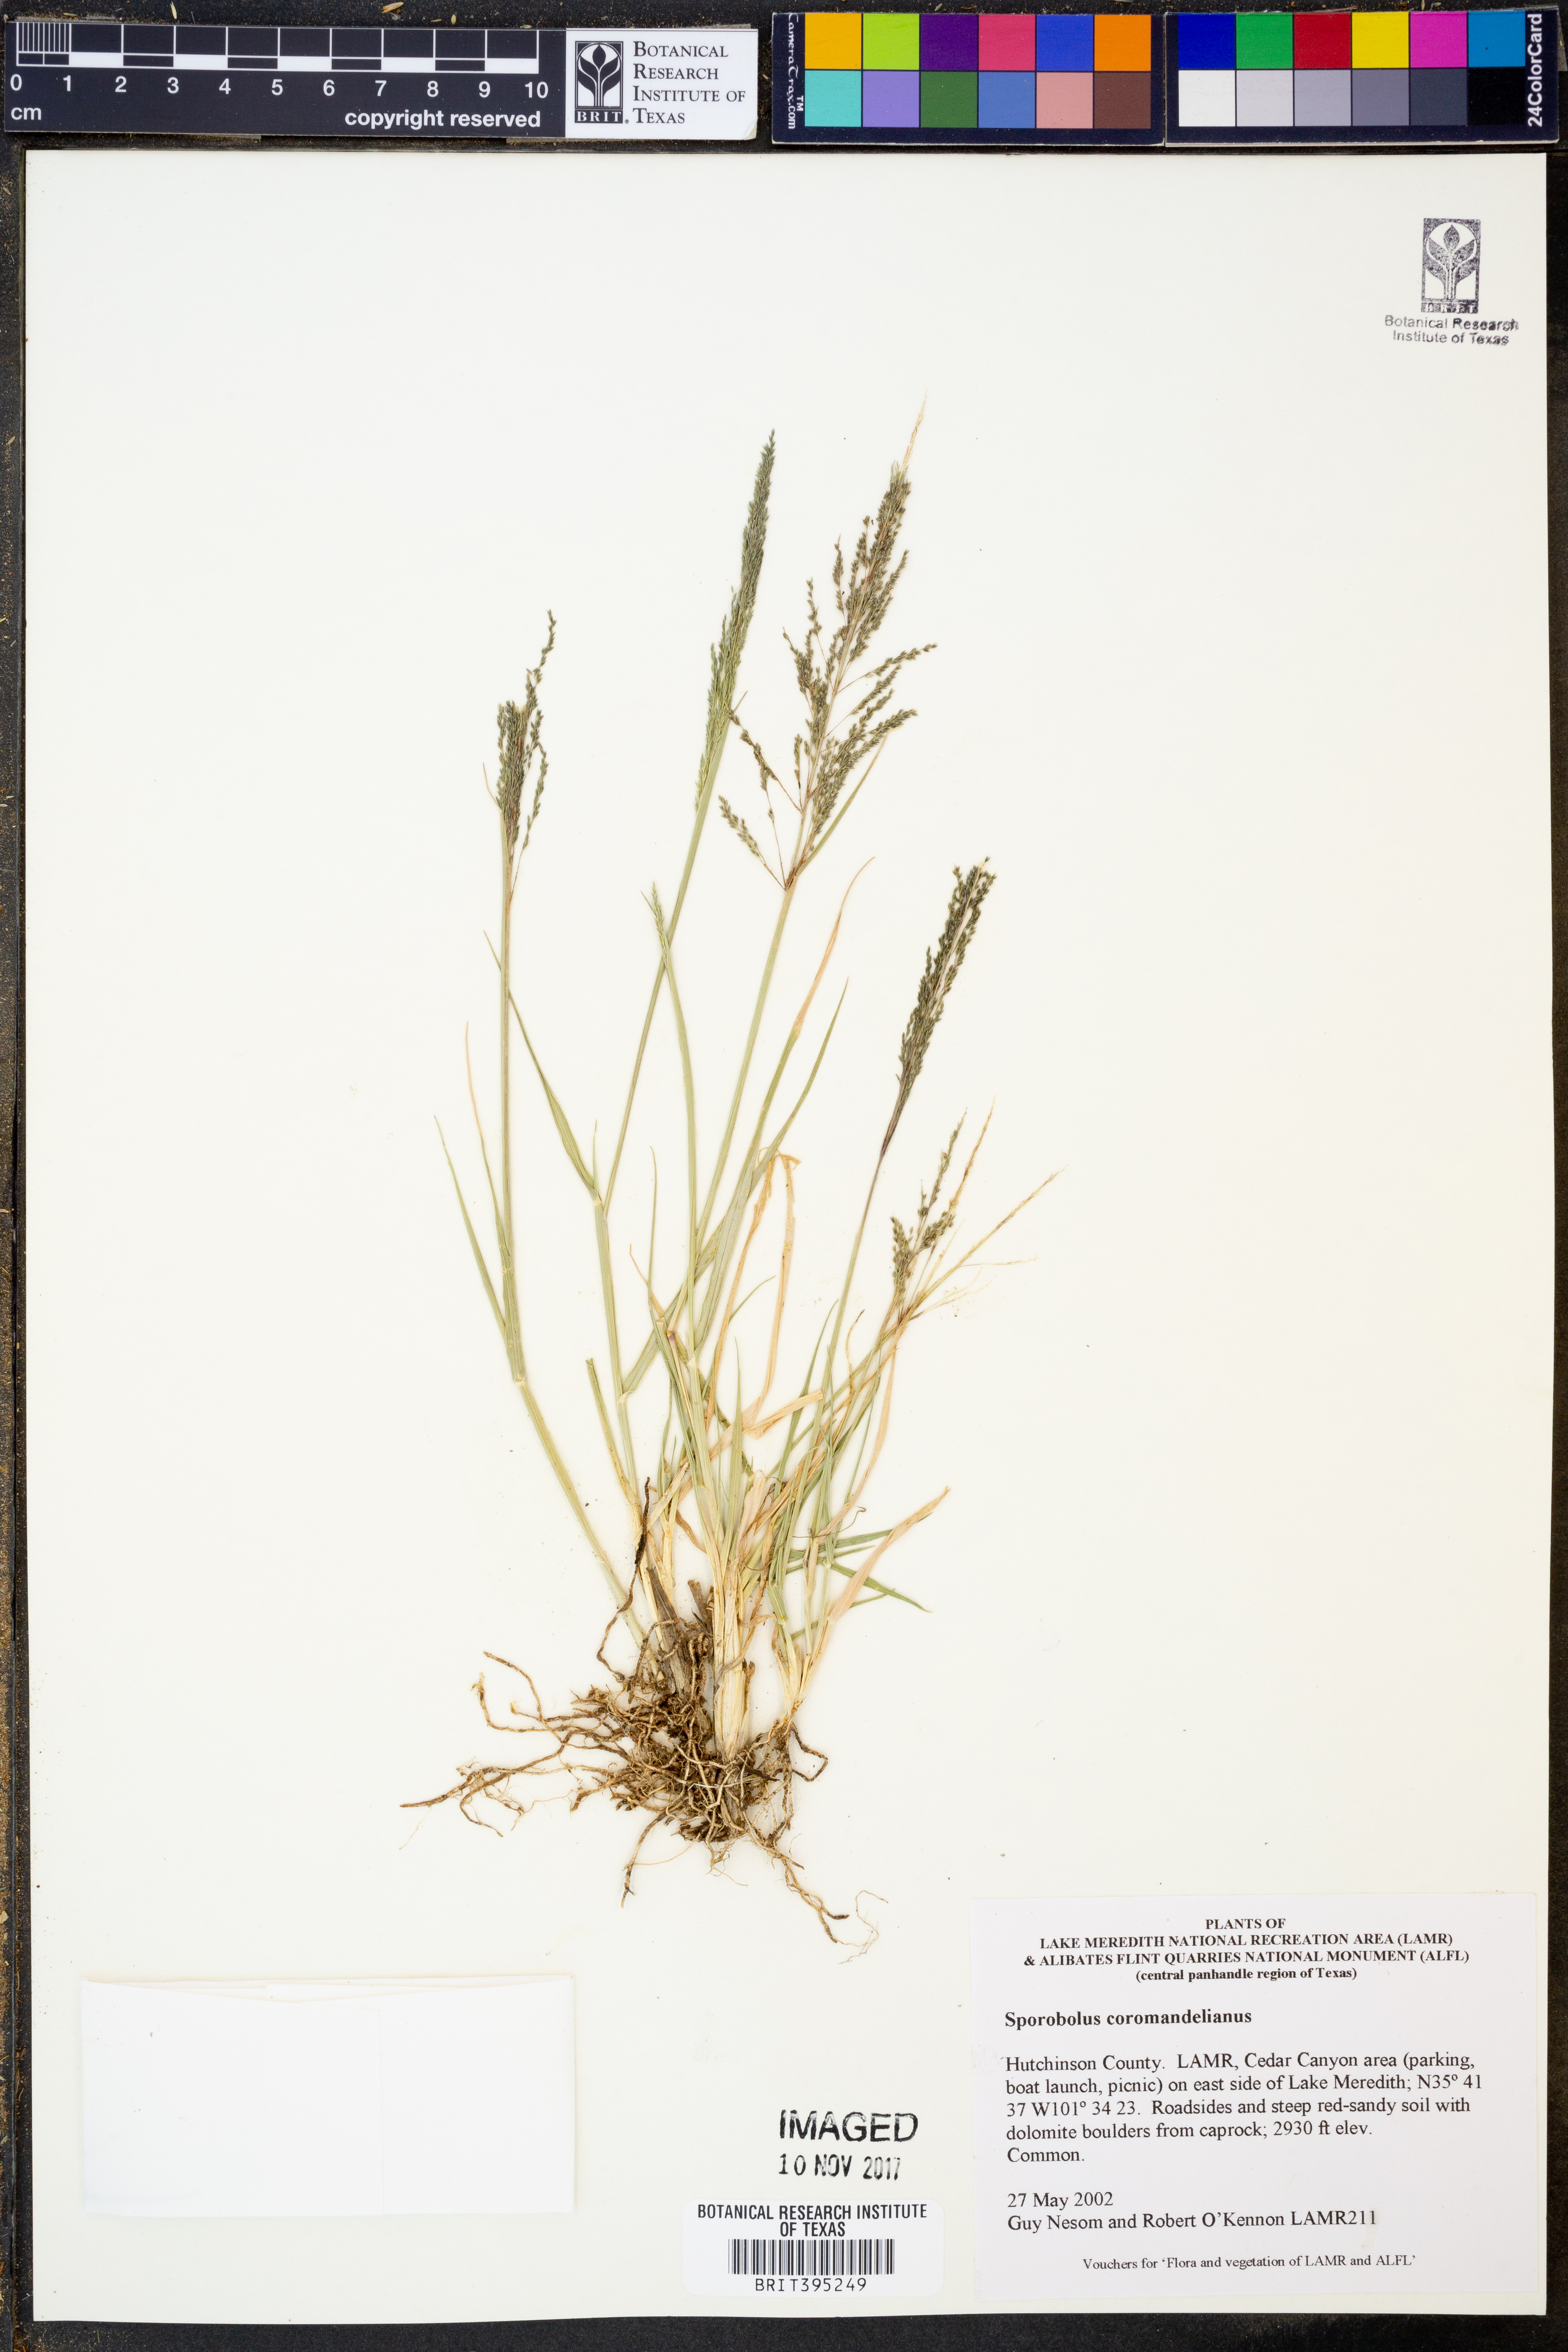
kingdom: Plantae
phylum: Tracheophyta
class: Liliopsida
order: Poales
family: Poaceae
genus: Sporobolus
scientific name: Sporobolus coromandelianus
